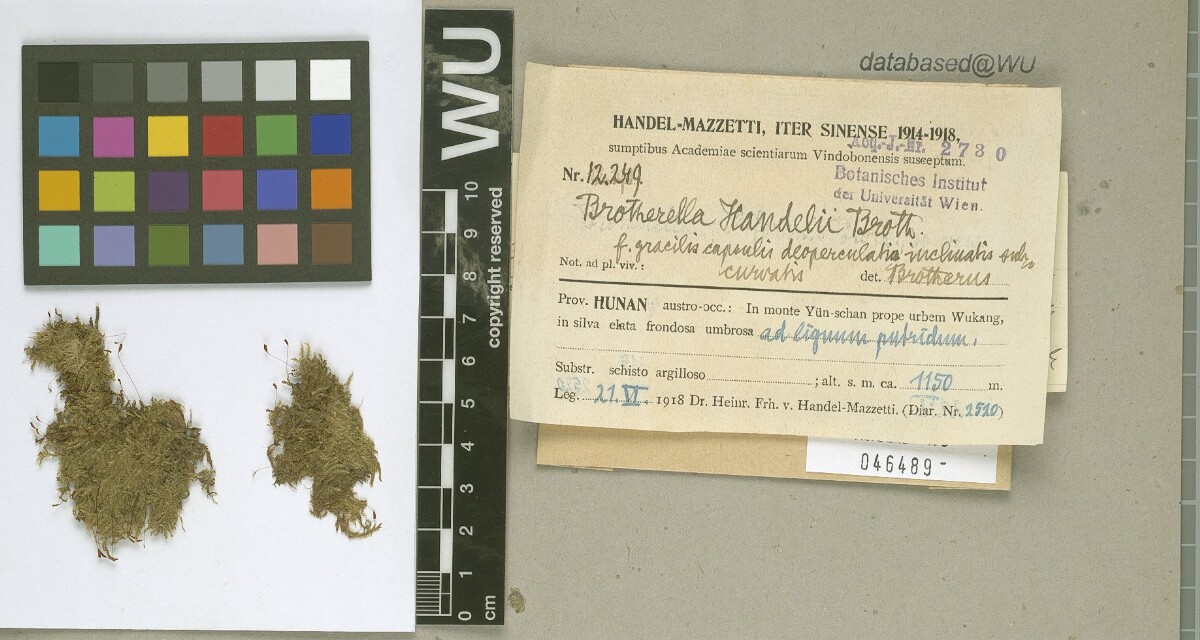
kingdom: Plantae
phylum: Bryophyta
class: Bryopsida
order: Hypnales
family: Pylaisiadelphaceae
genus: Brotherella
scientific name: Brotherella nictans
